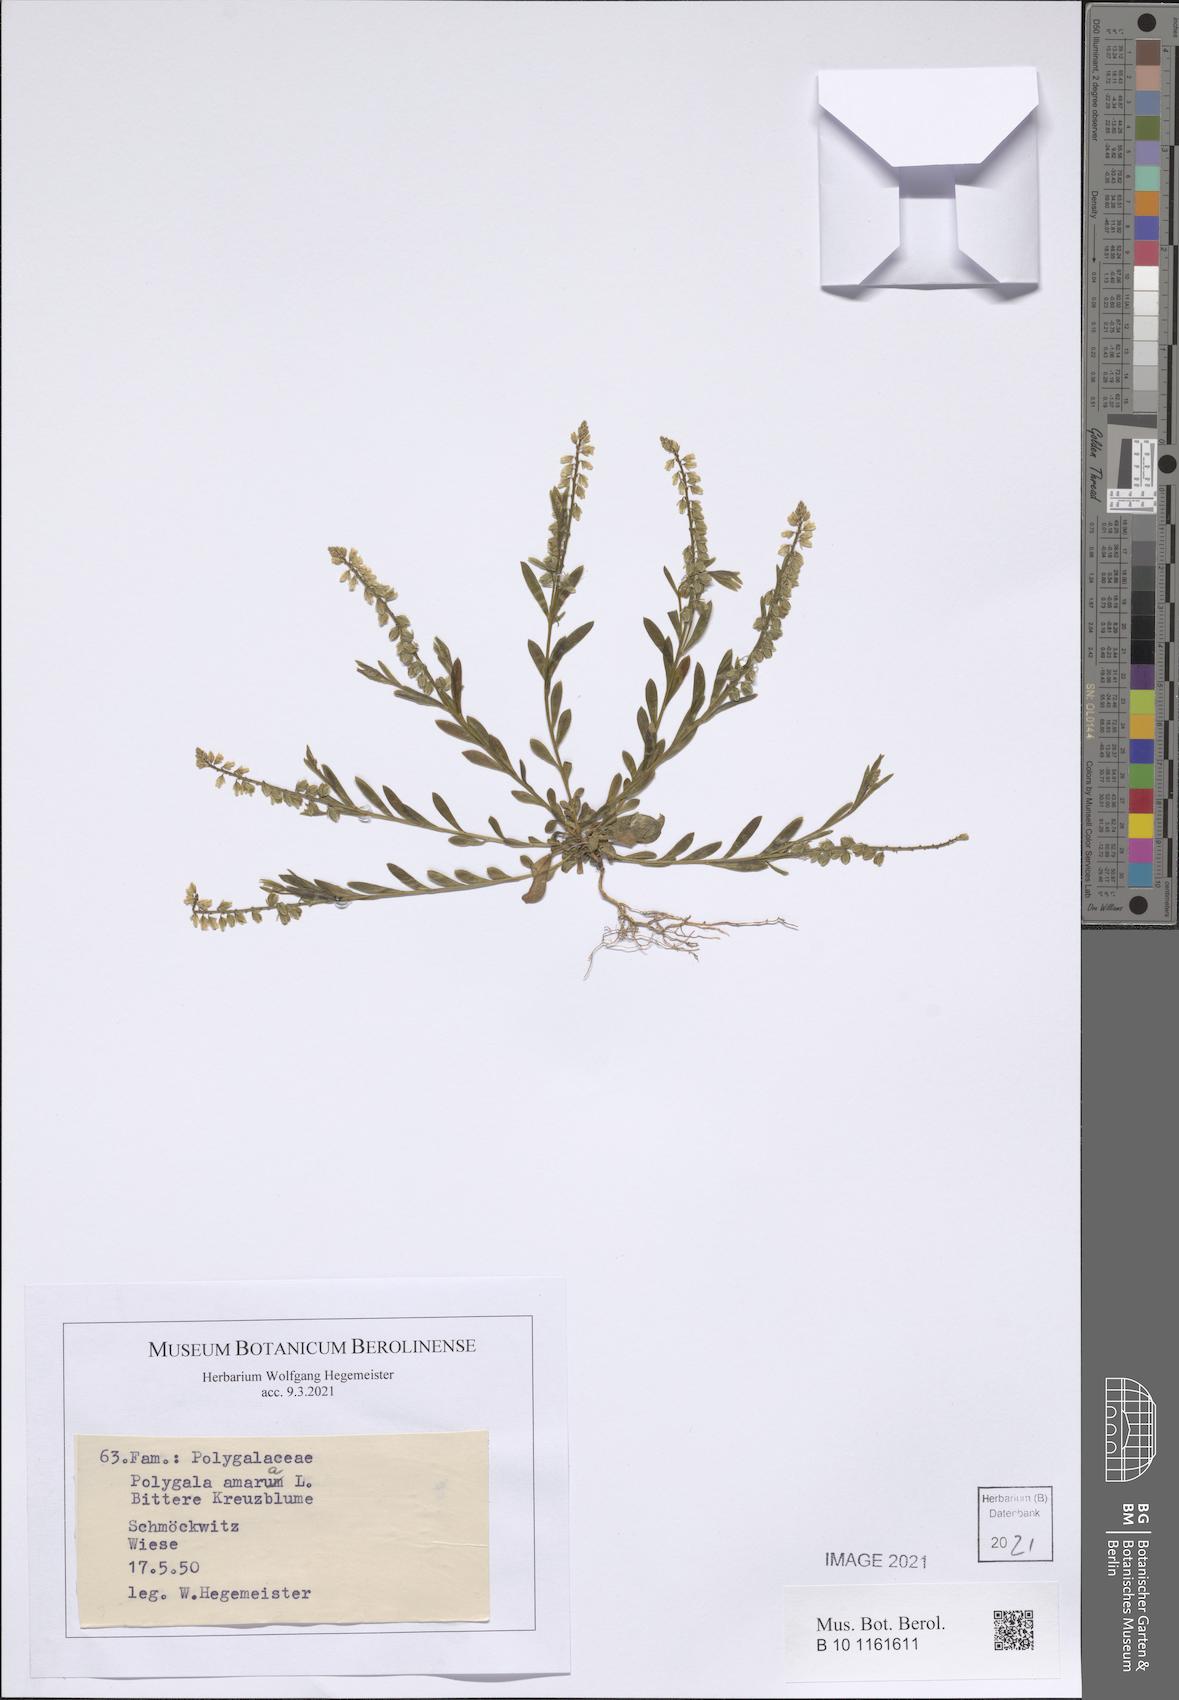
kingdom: Plantae
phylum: Tracheophyta
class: Magnoliopsida
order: Fabales
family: Polygalaceae
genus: Polygala
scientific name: Polygala amara
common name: Milkwort
